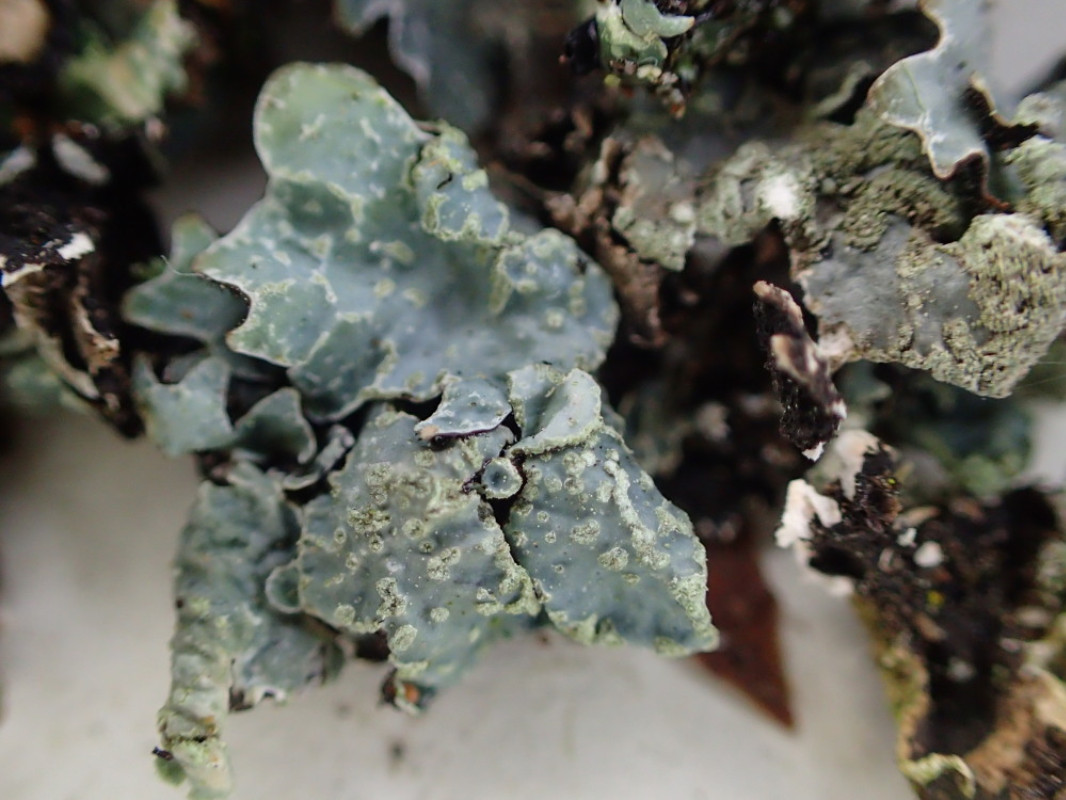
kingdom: Fungi
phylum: Ascomycota
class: Lecanoromycetes
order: Lecanorales
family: Parmeliaceae
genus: Parmelia
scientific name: Parmelia sulcata
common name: rynket skållav
